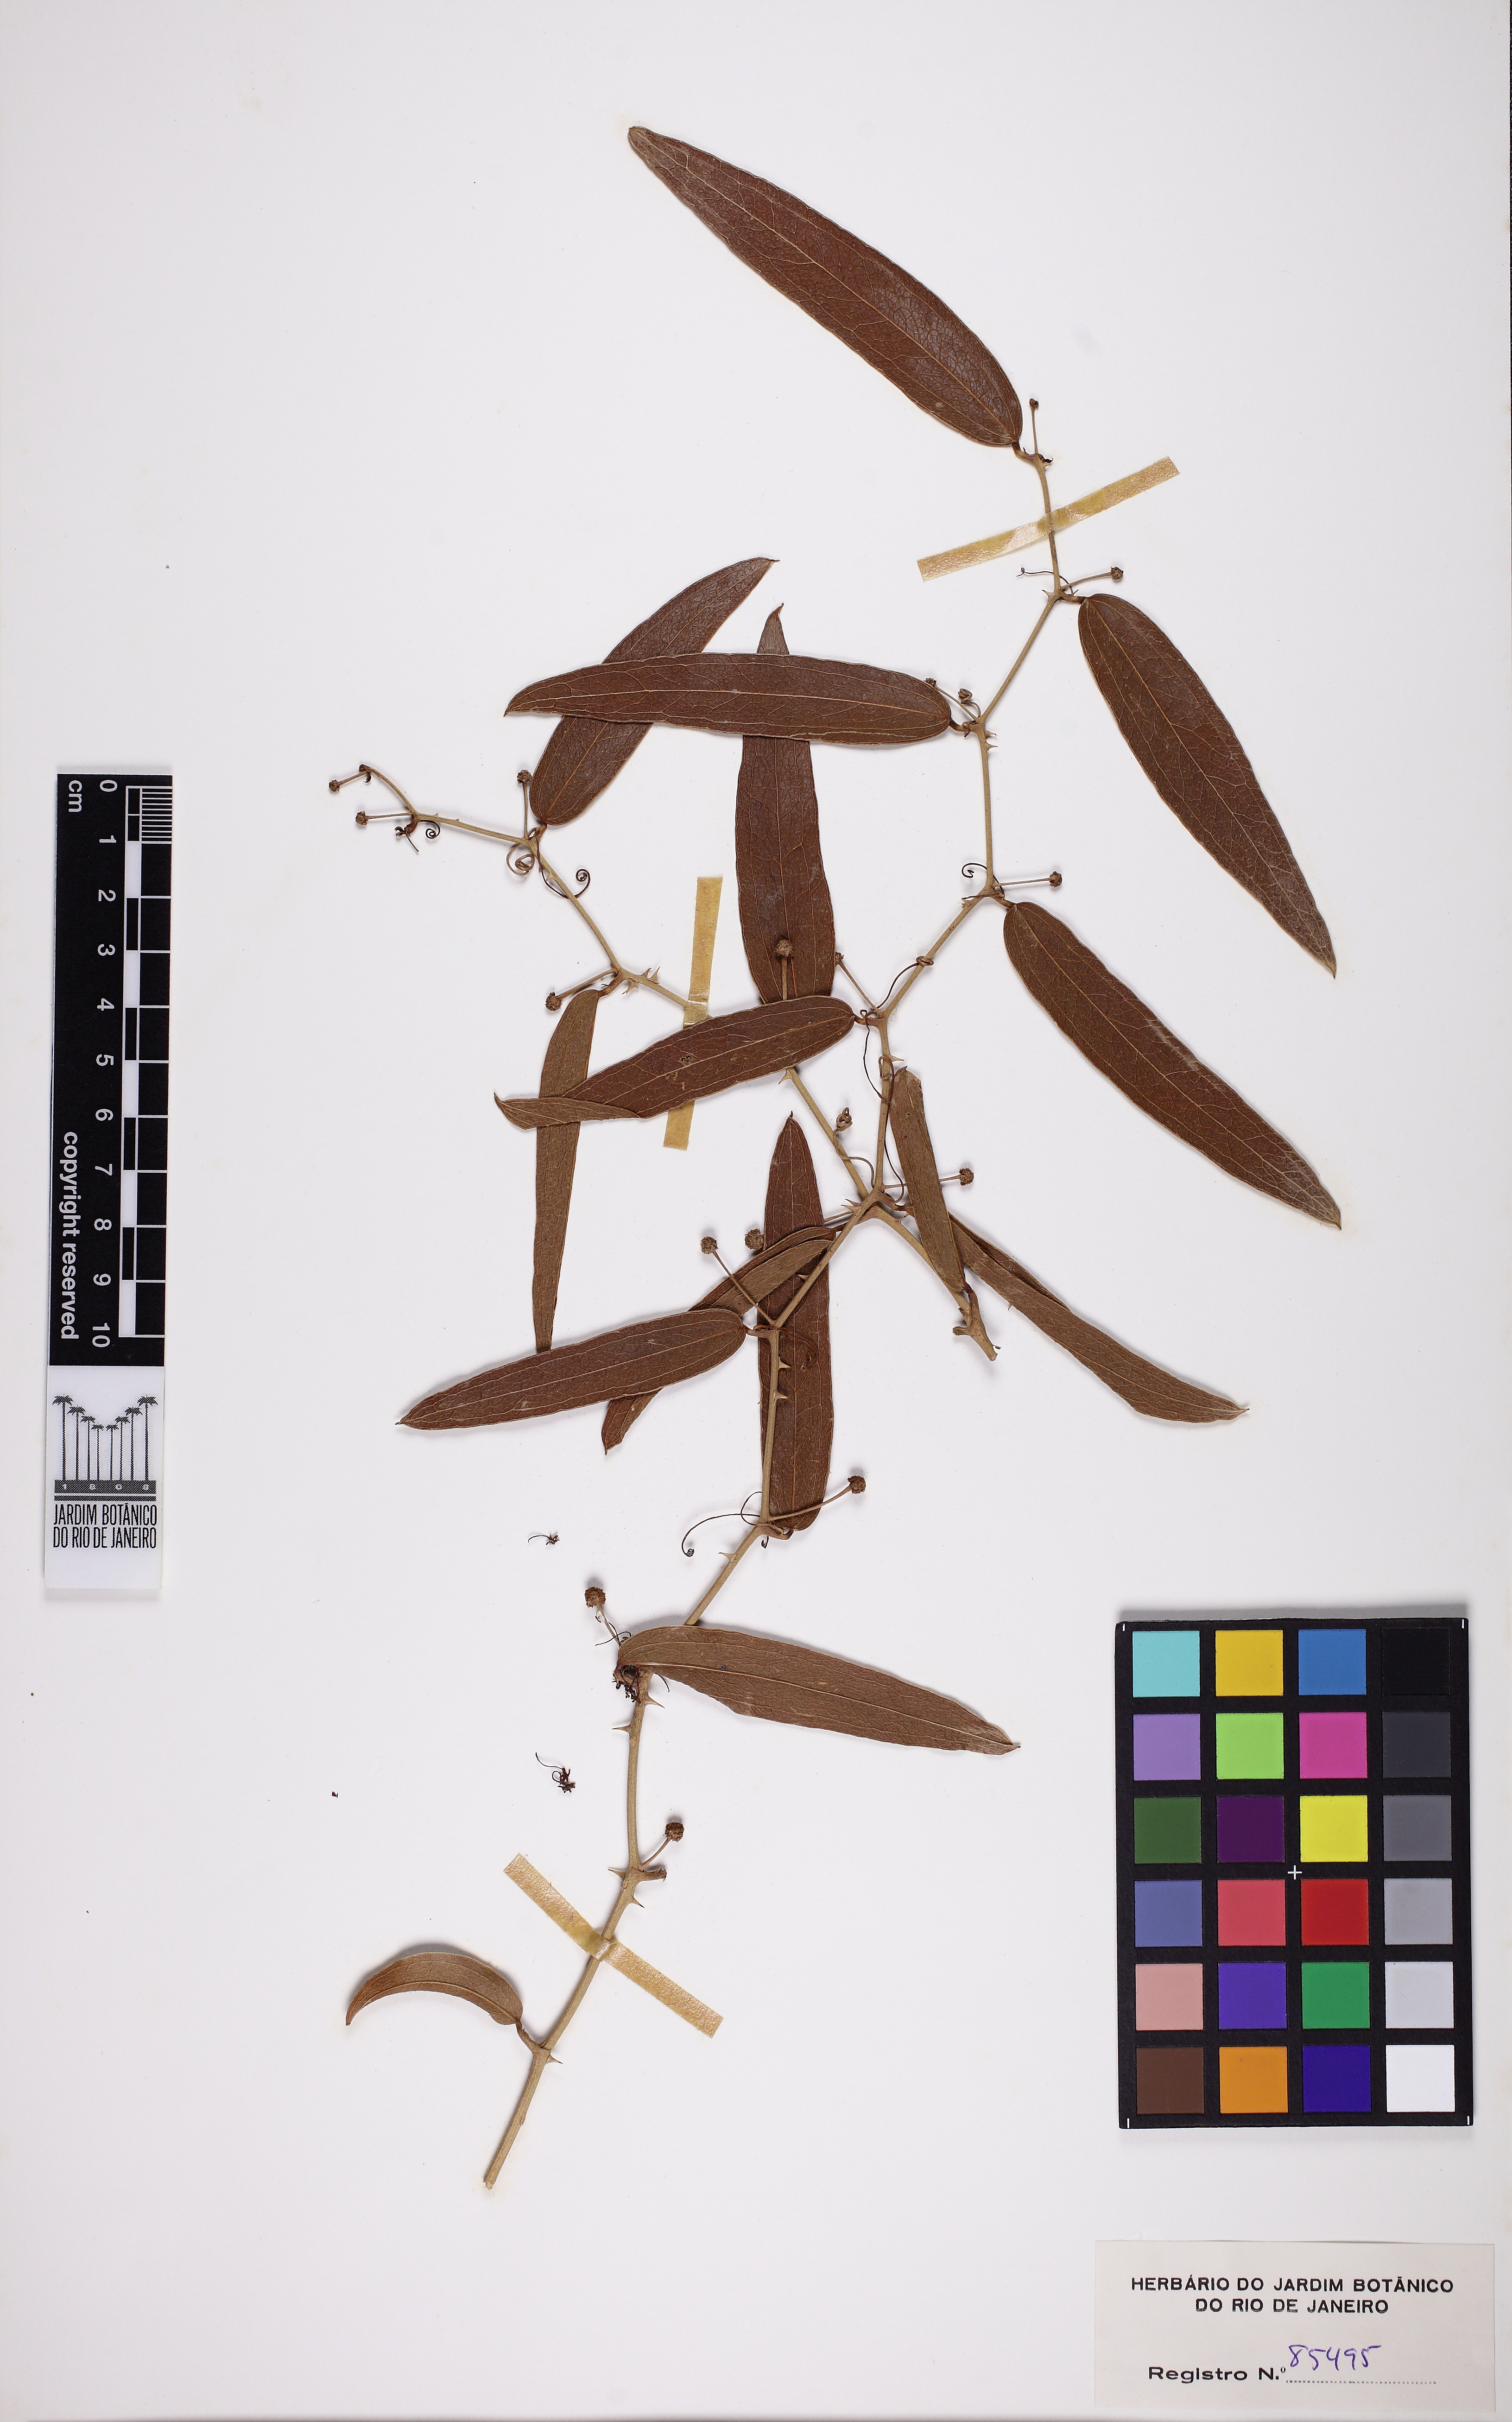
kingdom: Plantae
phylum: Tracheophyta
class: Liliopsida
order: Liliales
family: Smilacaceae
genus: Smilax
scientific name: Smilax campestris
